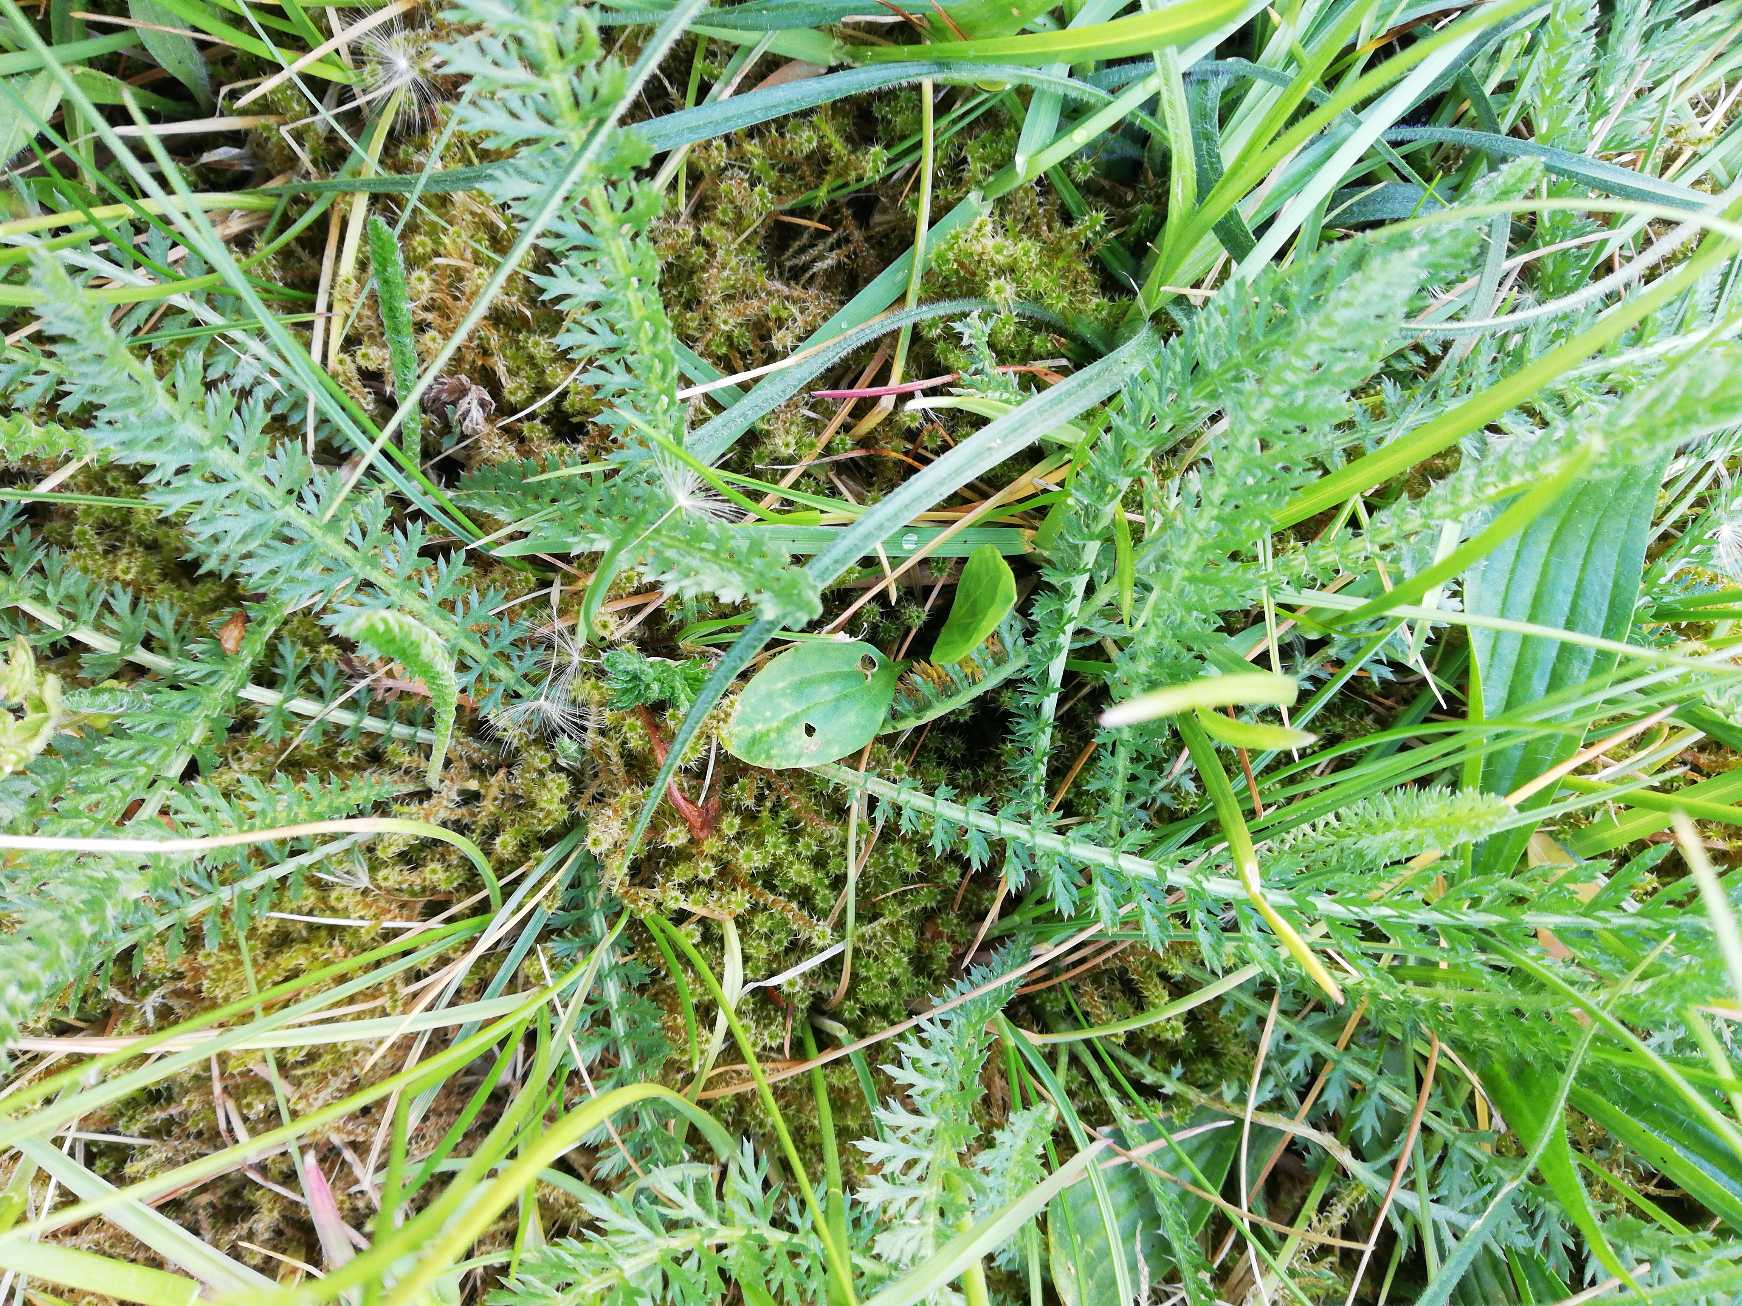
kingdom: Plantae
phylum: Tracheophyta
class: Magnoliopsida
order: Asterales
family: Asteraceae
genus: Achillea
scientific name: Achillea millefolium
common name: Almindelig røllike
